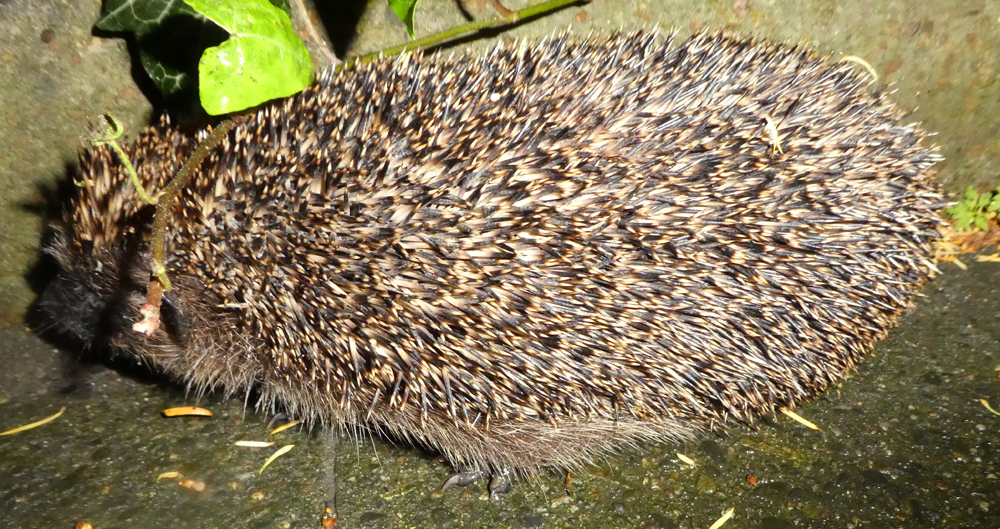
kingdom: Animalia
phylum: Chordata
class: Mammalia
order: Erinaceomorpha
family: Erinaceidae
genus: Erinaceus
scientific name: Erinaceus europaeus
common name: West european hedgehog
